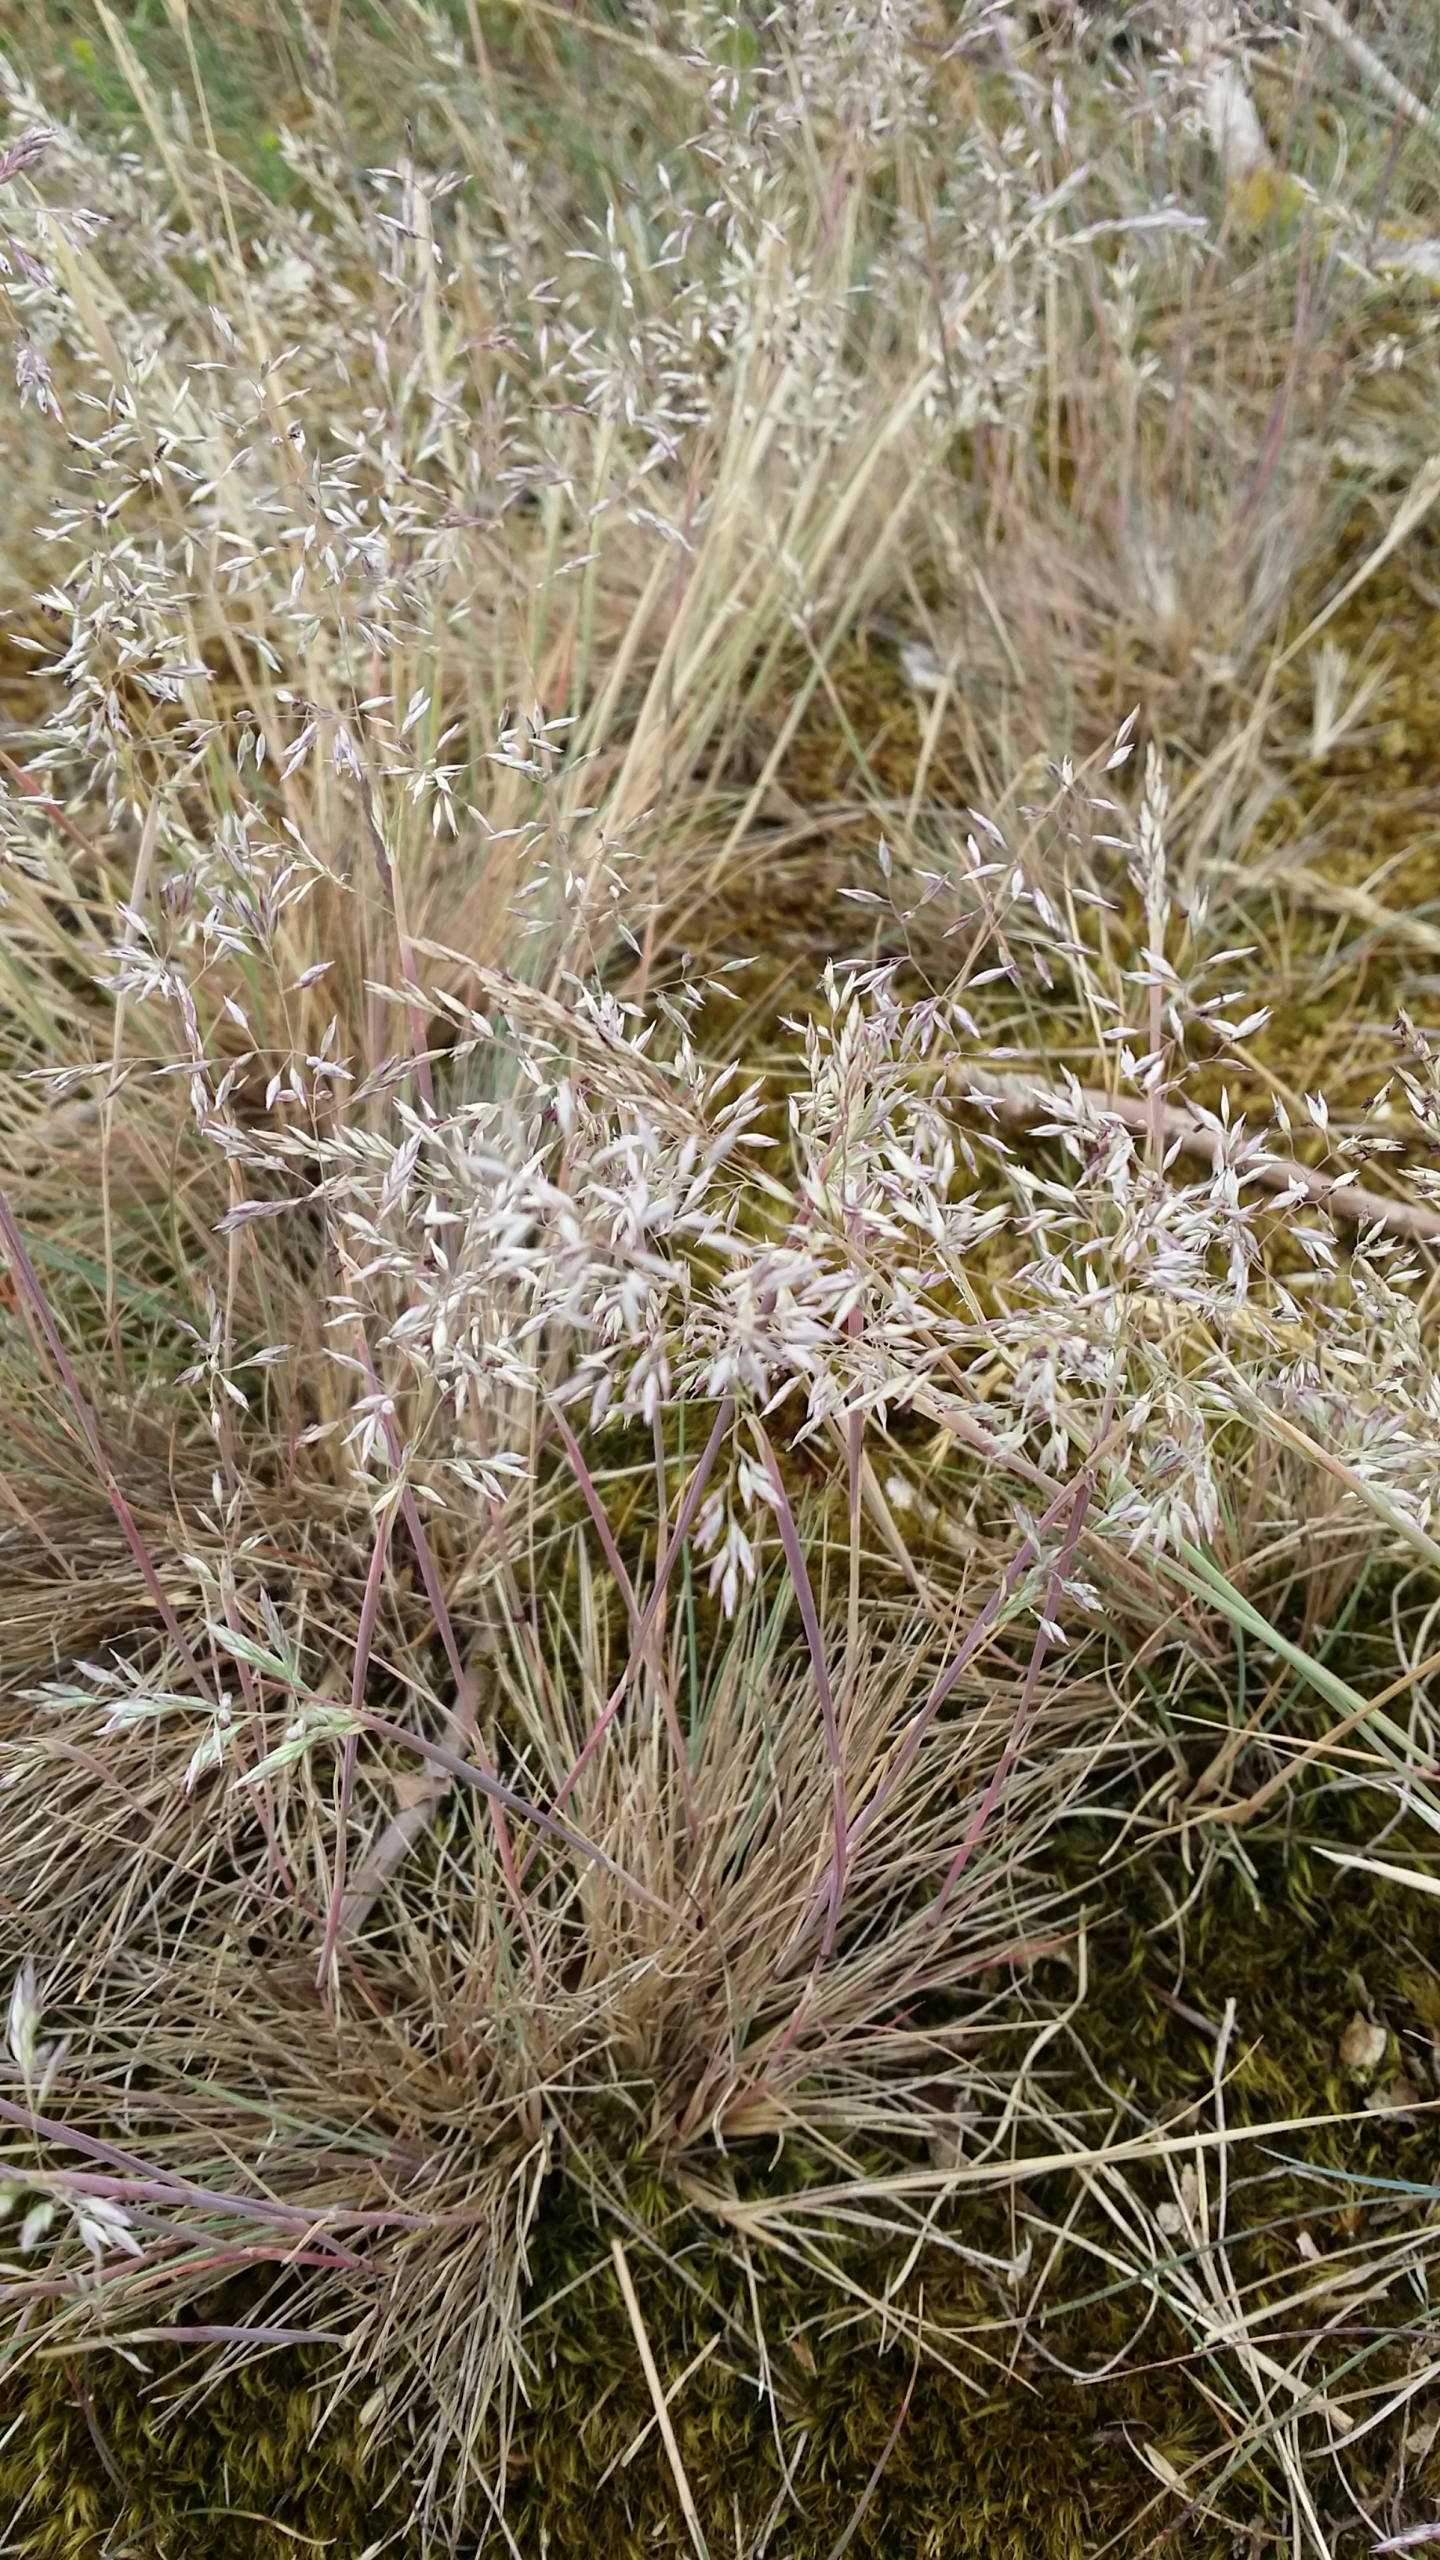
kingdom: Plantae
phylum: Tracheophyta
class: Liliopsida
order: Poales
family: Poaceae
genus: Corynephorus
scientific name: Corynephorus canescens
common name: Sandskæg
